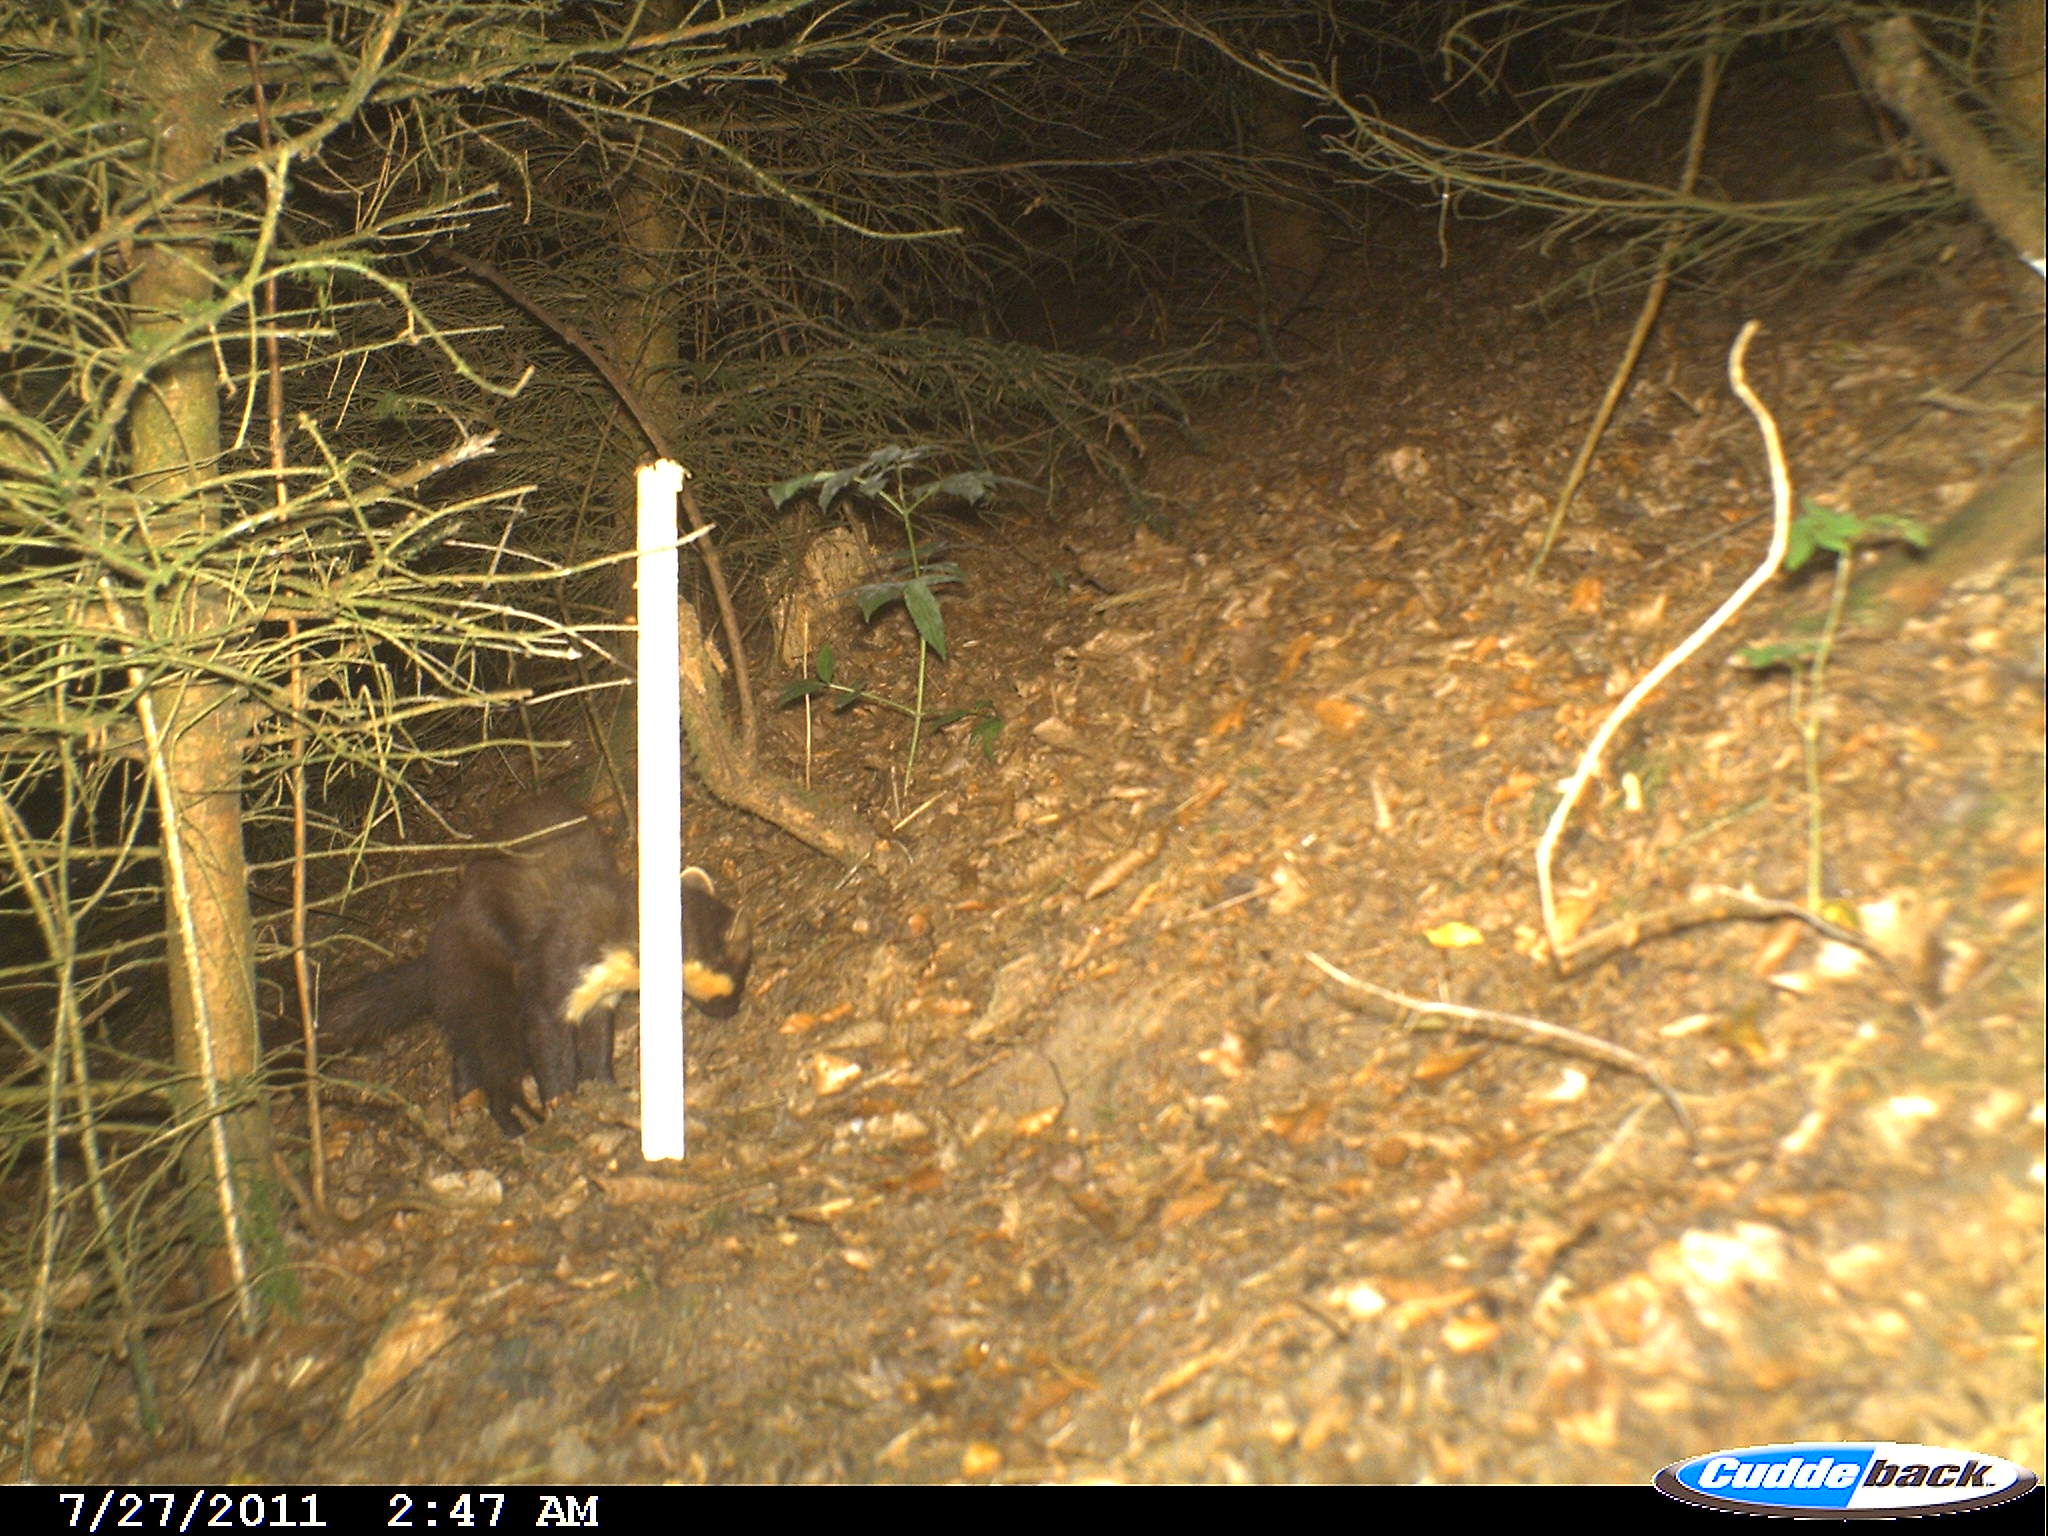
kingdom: Animalia
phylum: Chordata
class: Mammalia
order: Carnivora
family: Mustelidae
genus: Martes
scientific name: Martes martes
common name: European pine marten
